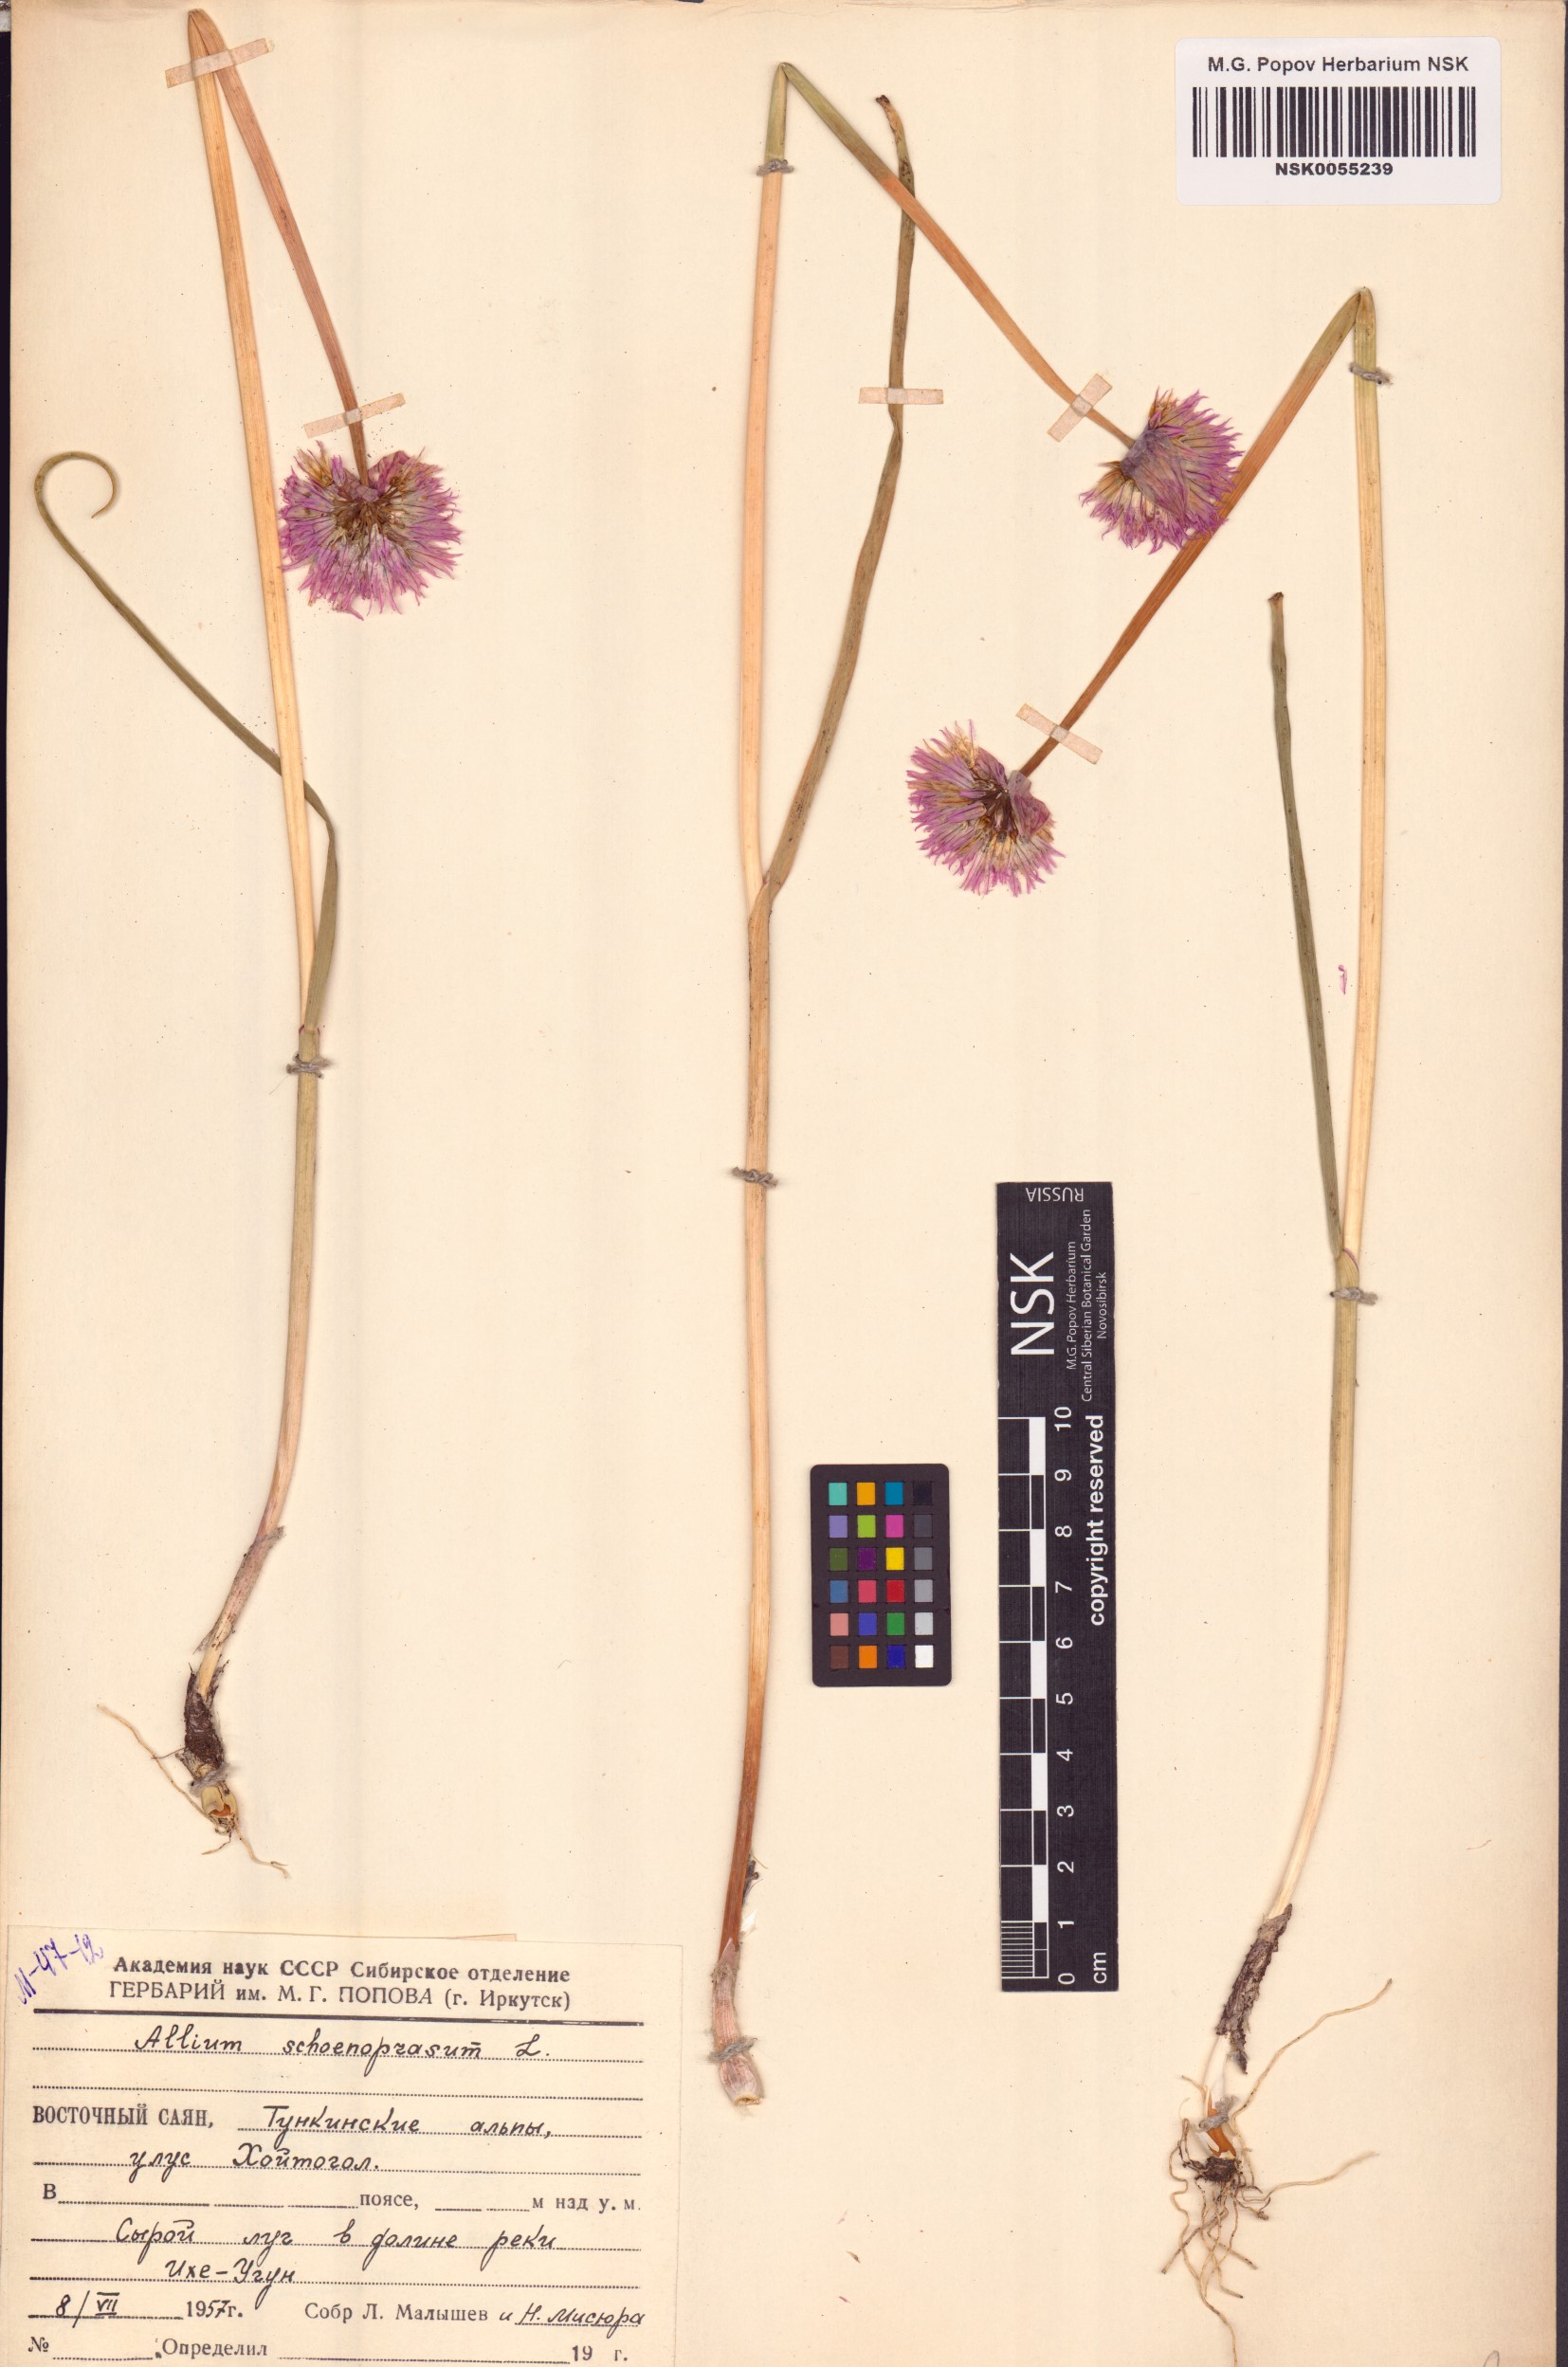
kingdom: Plantae
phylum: Tracheophyta
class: Liliopsida
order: Asparagales
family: Amaryllidaceae
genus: Allium
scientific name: Allium schoenoprasum
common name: Chives
